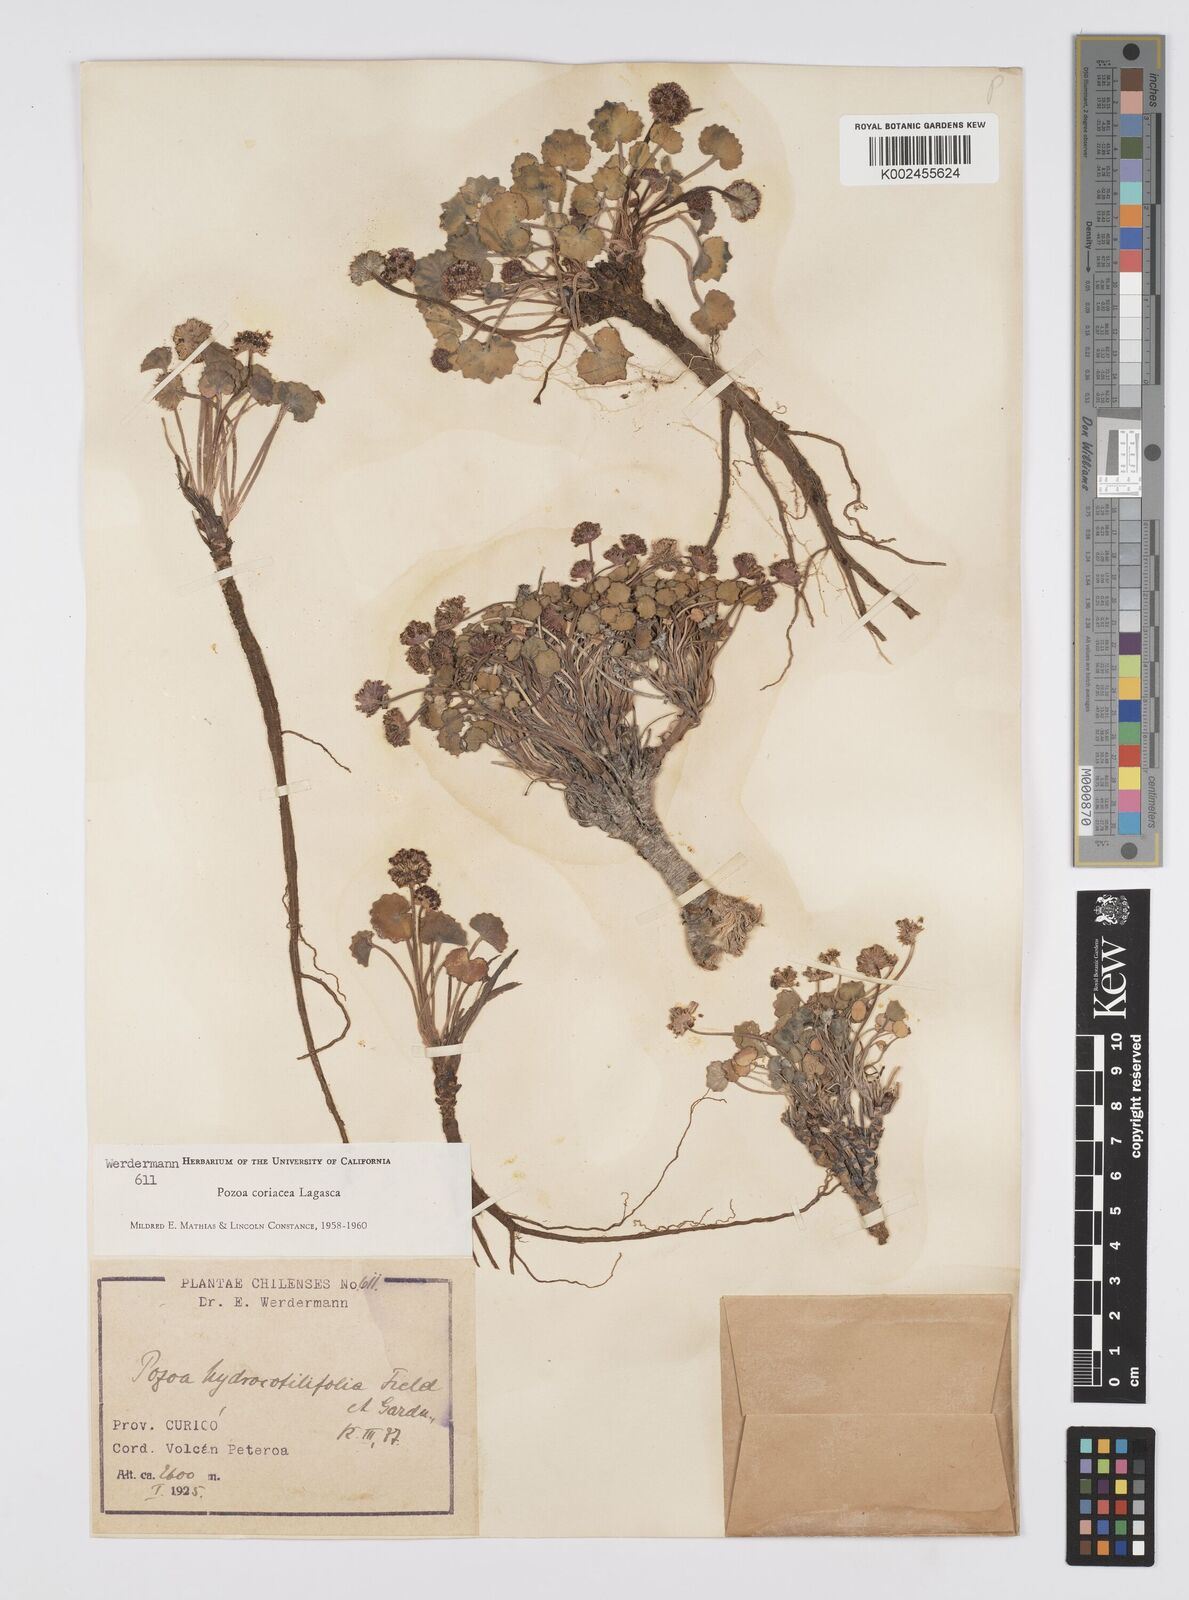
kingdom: Plantae
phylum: Tracheophyta
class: Magnoliopsida
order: Apiales
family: Apiaceae
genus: Pozoa
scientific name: Pozoa coriacea
